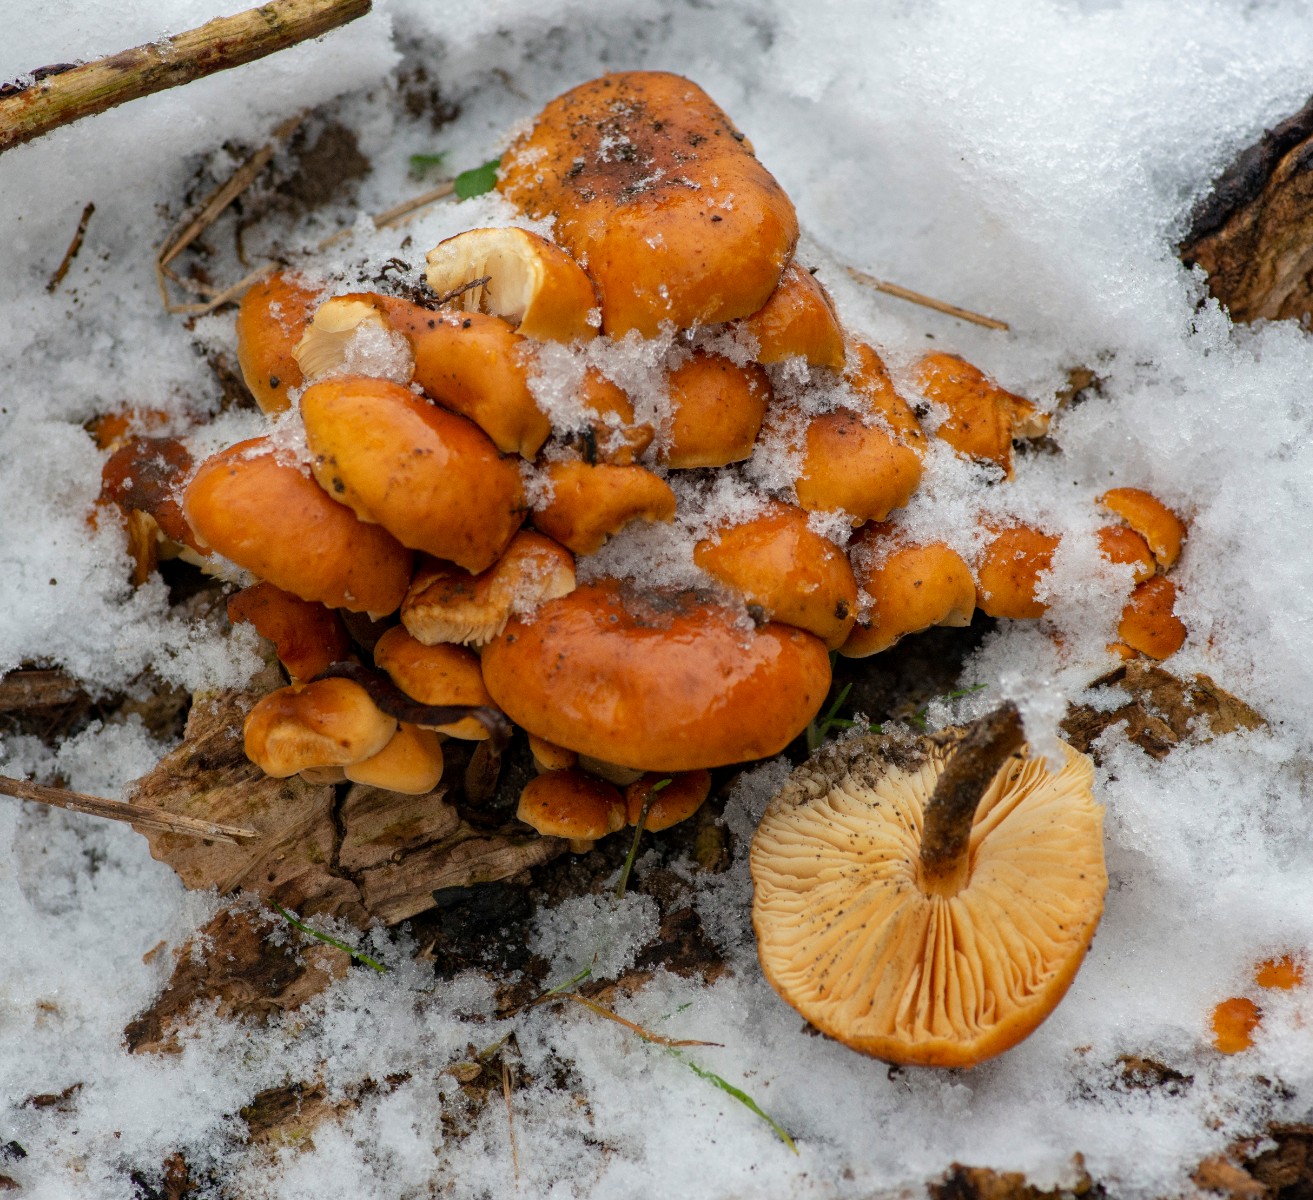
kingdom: Fungi
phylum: Basidiomycota
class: Agaricomycetes
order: Agaricales
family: Physalacriaceae
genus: Flammulina
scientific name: Flammulina
